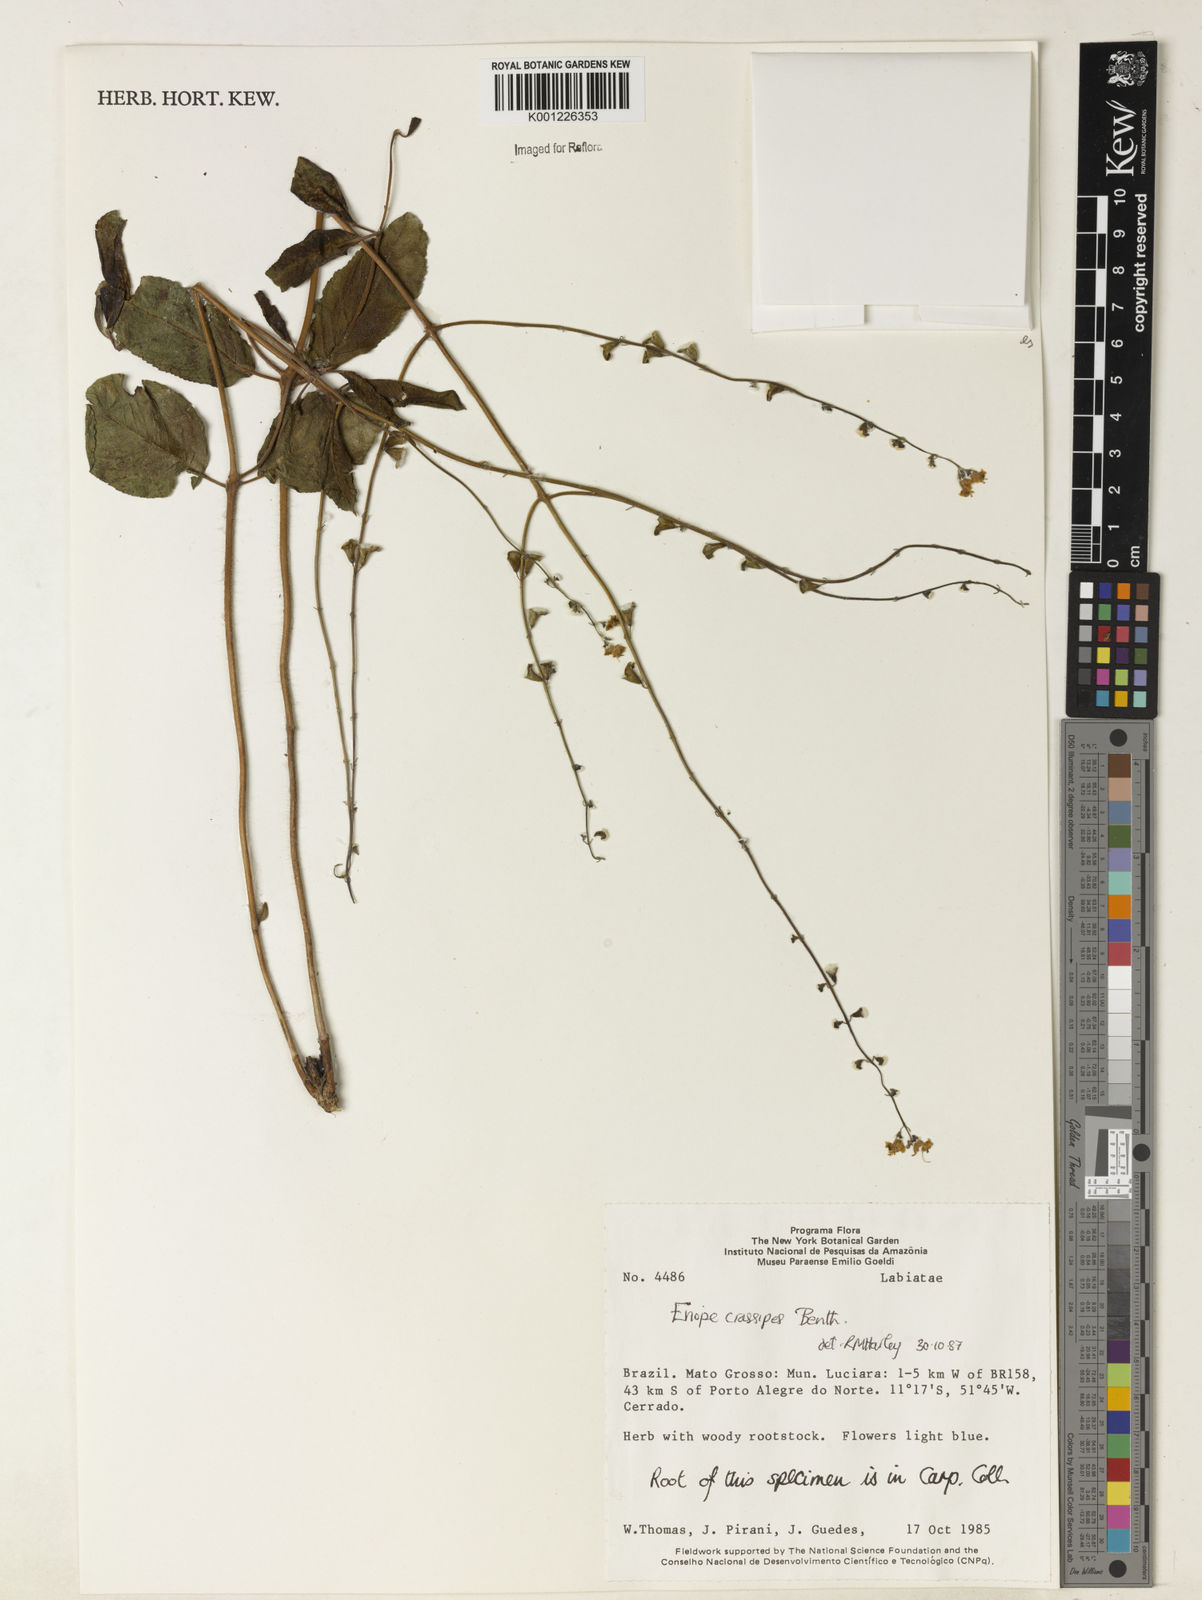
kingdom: Plantae
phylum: Tracheophyta
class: Magnoliopsida
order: Lamiales
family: Lamiaceae
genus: Eriope
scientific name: Eriope crassipes
